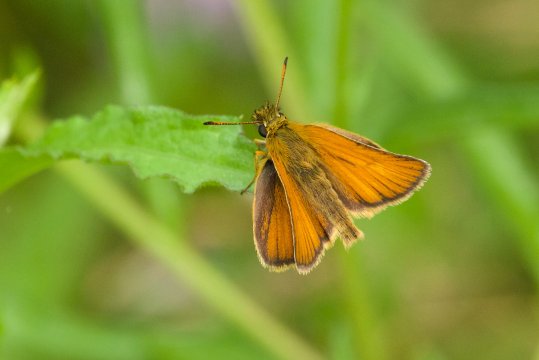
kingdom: Animalia
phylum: Arthropoda
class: Insecta
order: Lepidoptera
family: Hesperiidae
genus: Thymelicus
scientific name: Thymelicus lineola
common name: European Skipper
